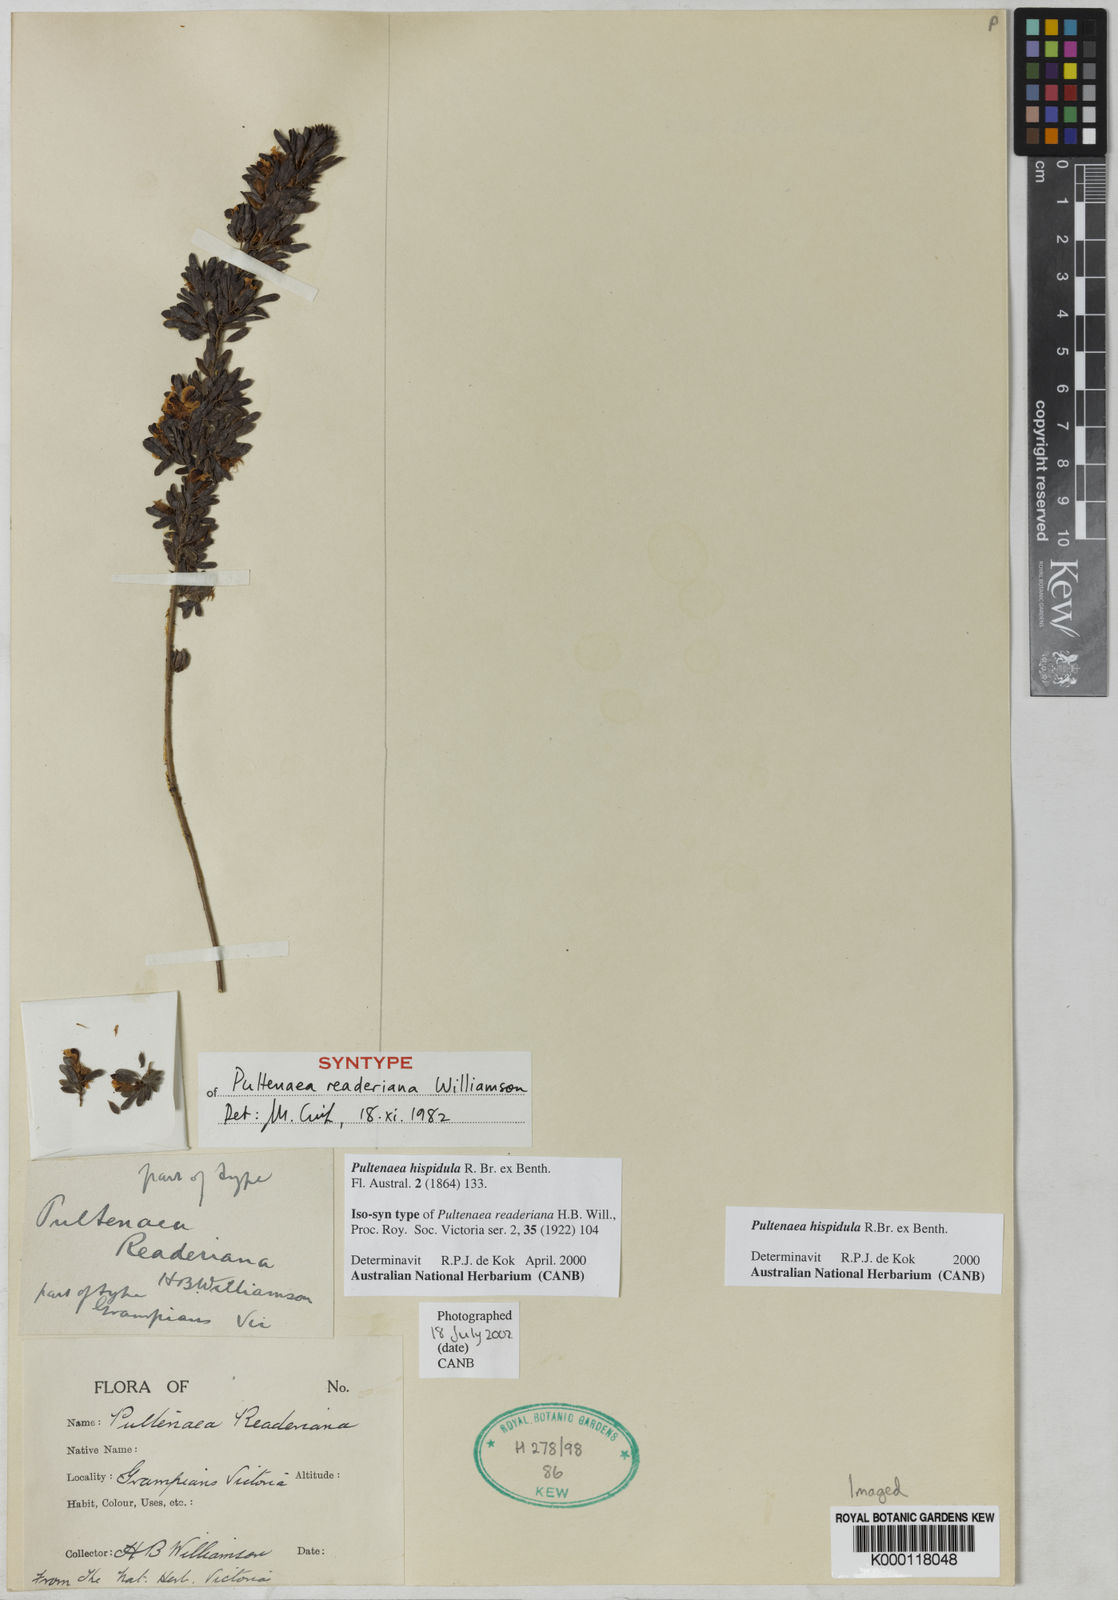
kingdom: Plantae
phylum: Tracheophyta
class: Magnoliopsida
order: Fabales
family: Fabaceae
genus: Pultenaea
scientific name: Pultenaea hispidula
